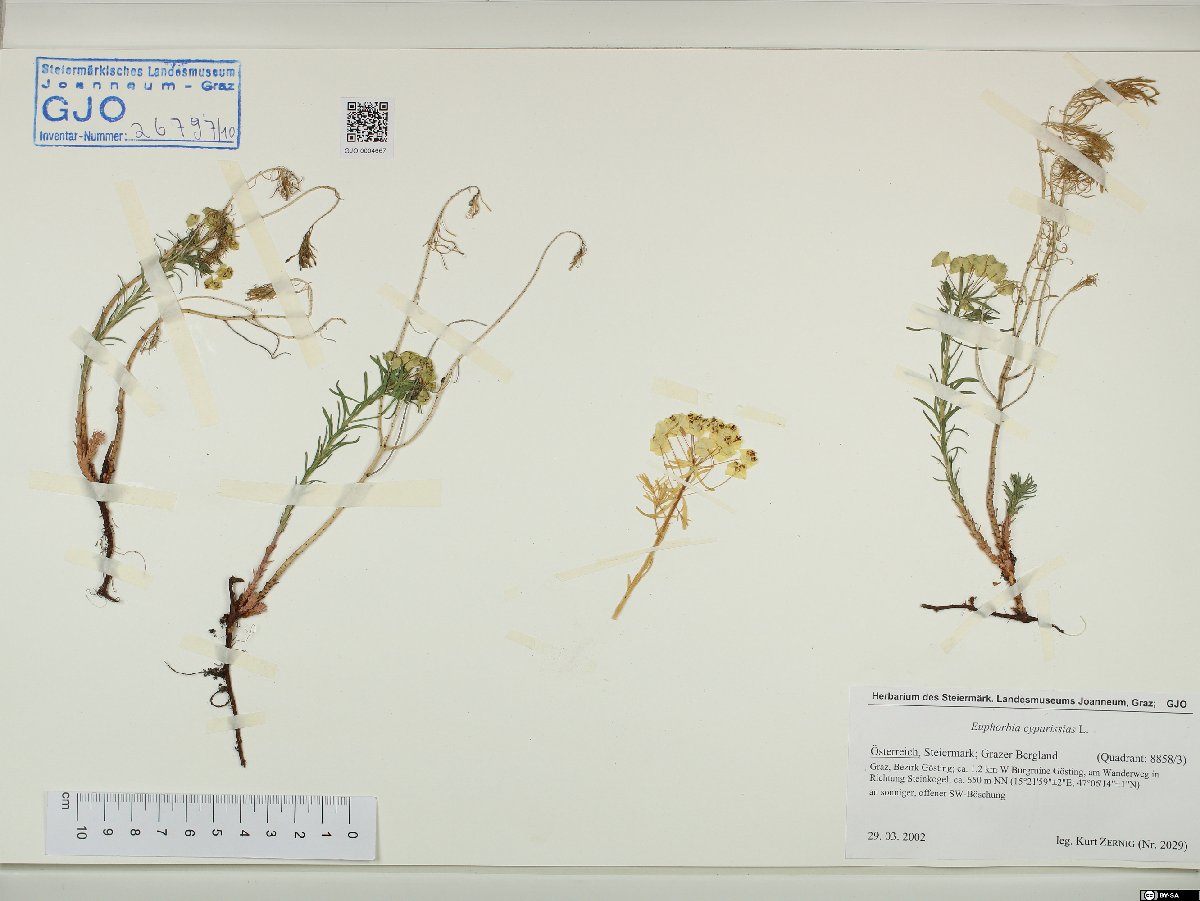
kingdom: Plantae
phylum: Tracheophyta
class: Magnoliopsida
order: Malpighiales
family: Euphorbiaceae
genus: Euphorbia
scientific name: Euphorbia cyparissias
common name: Cypress spurge
